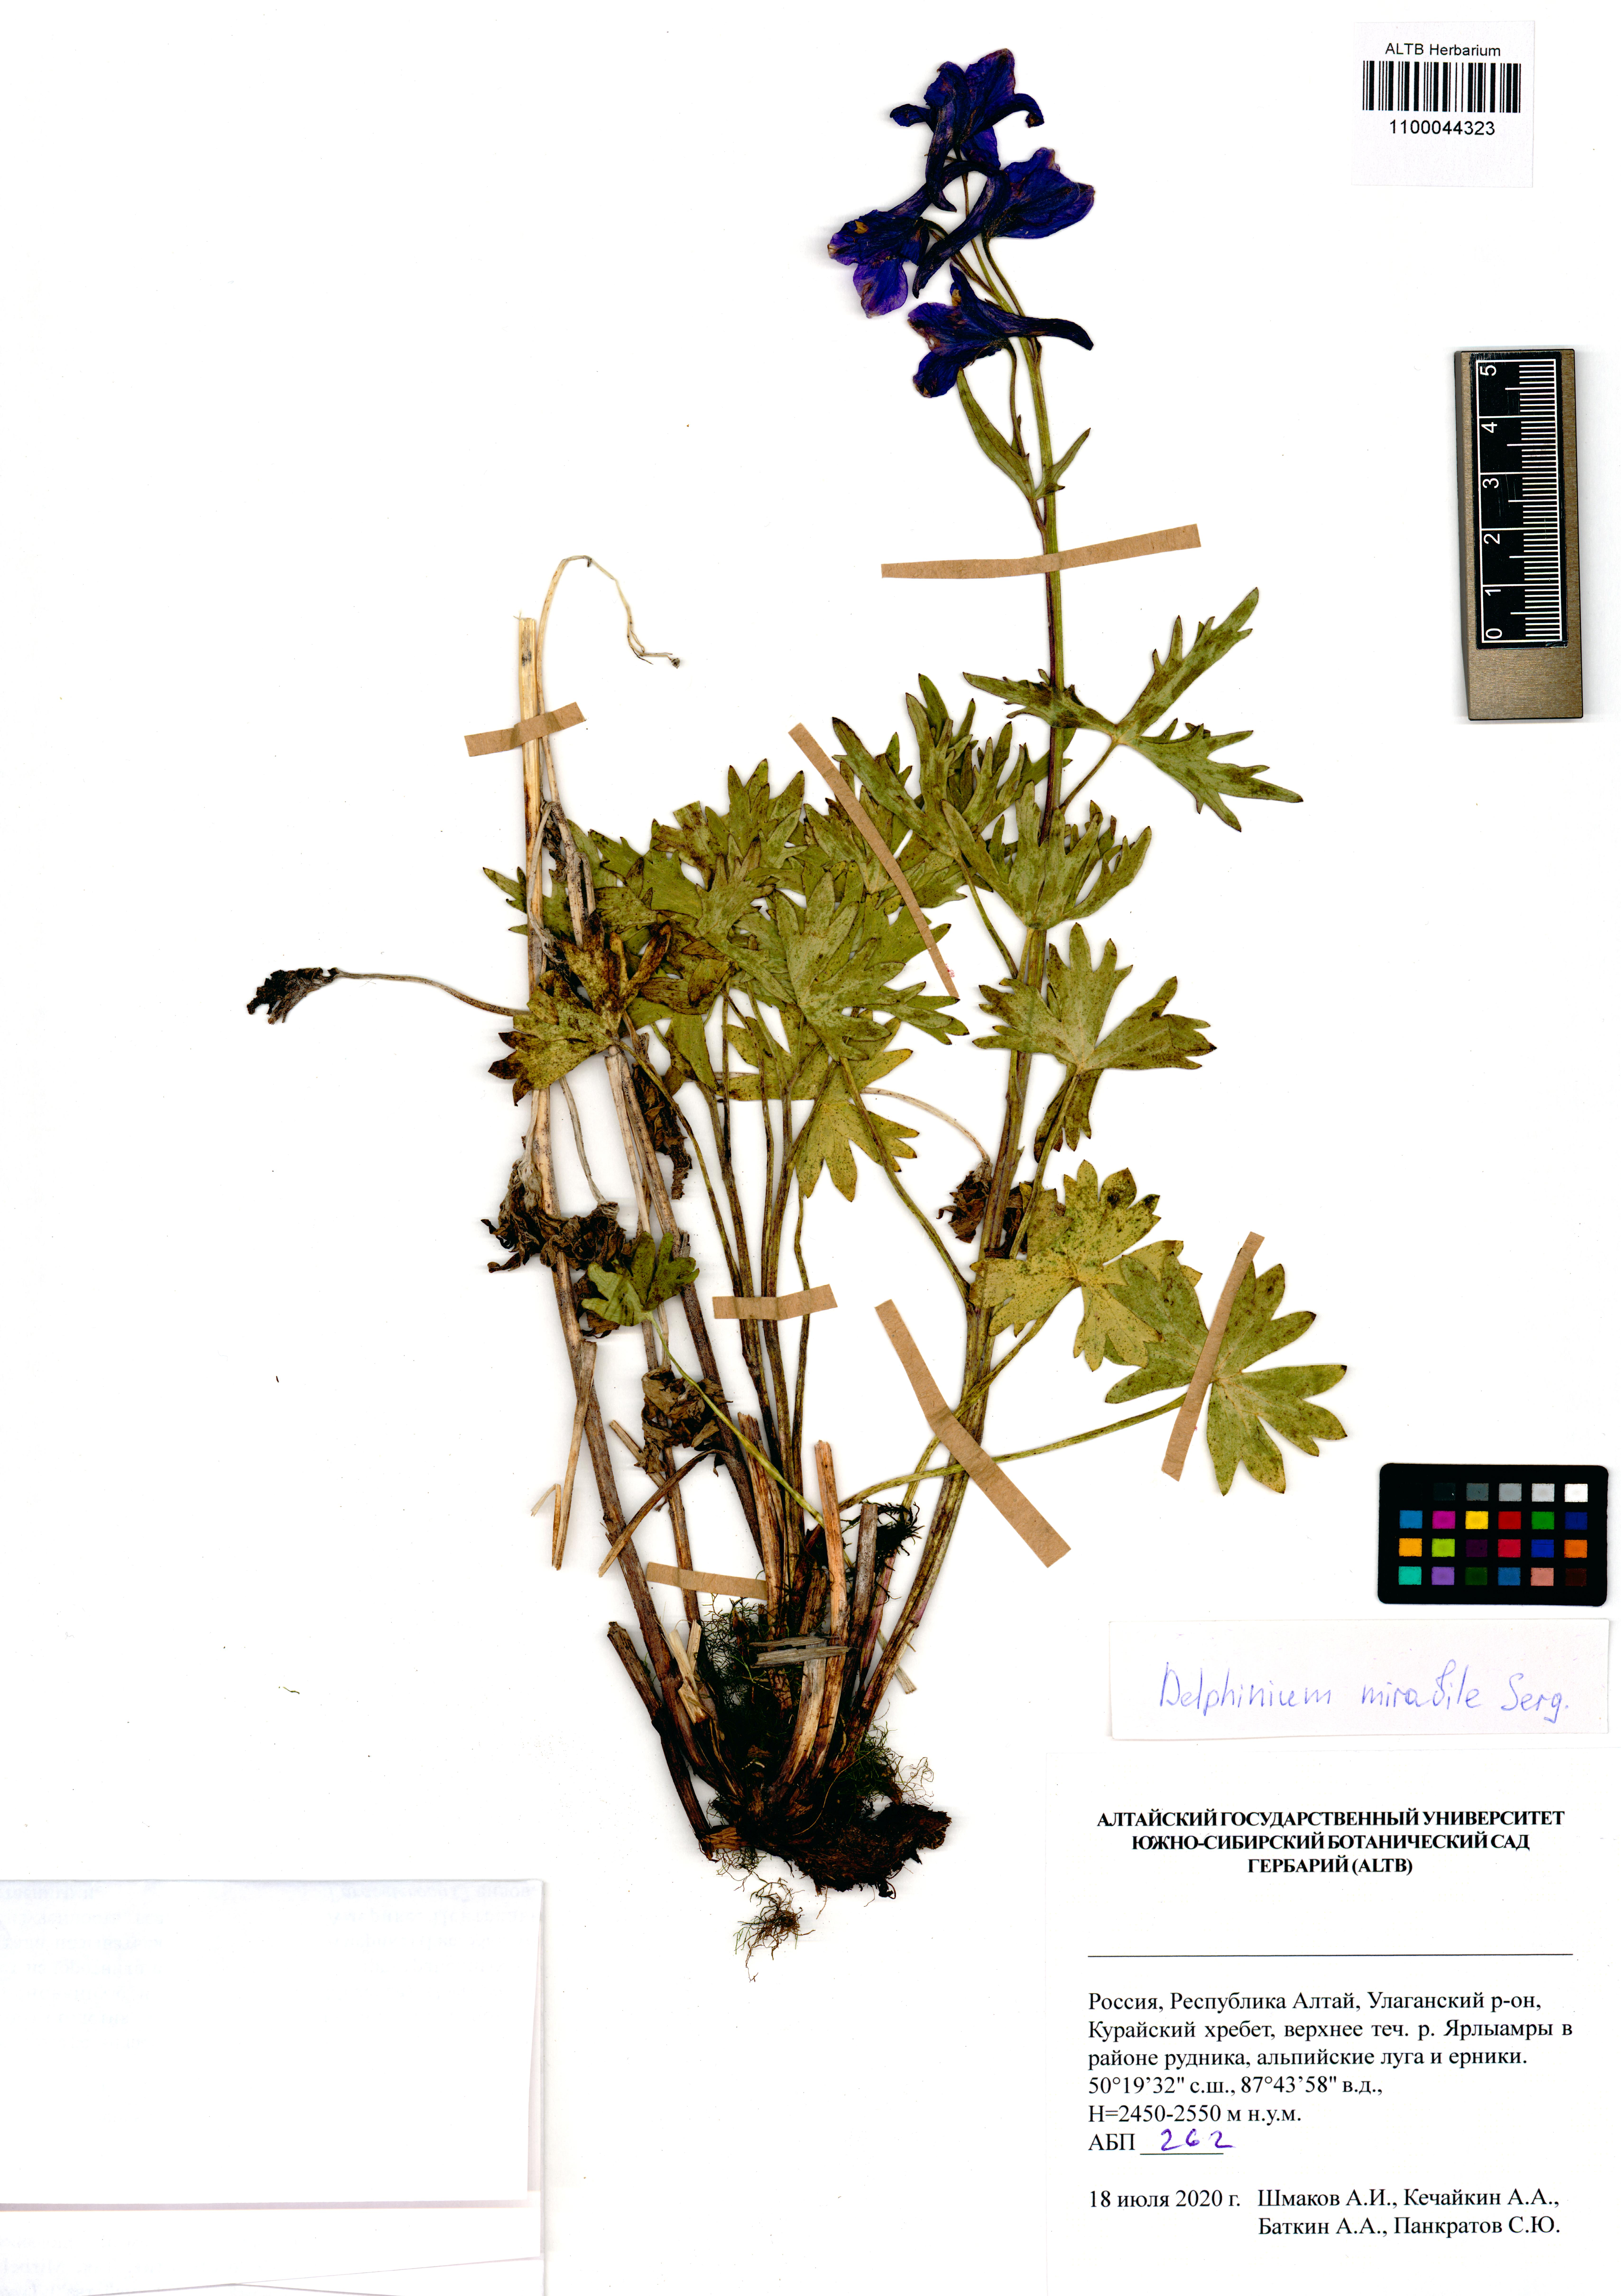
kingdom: Plantae
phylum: Tracheophyta
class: Magnoliopsida
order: Ranunculales
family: Ranunculaceae
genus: Delphinium
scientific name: Delphinium mirabile
